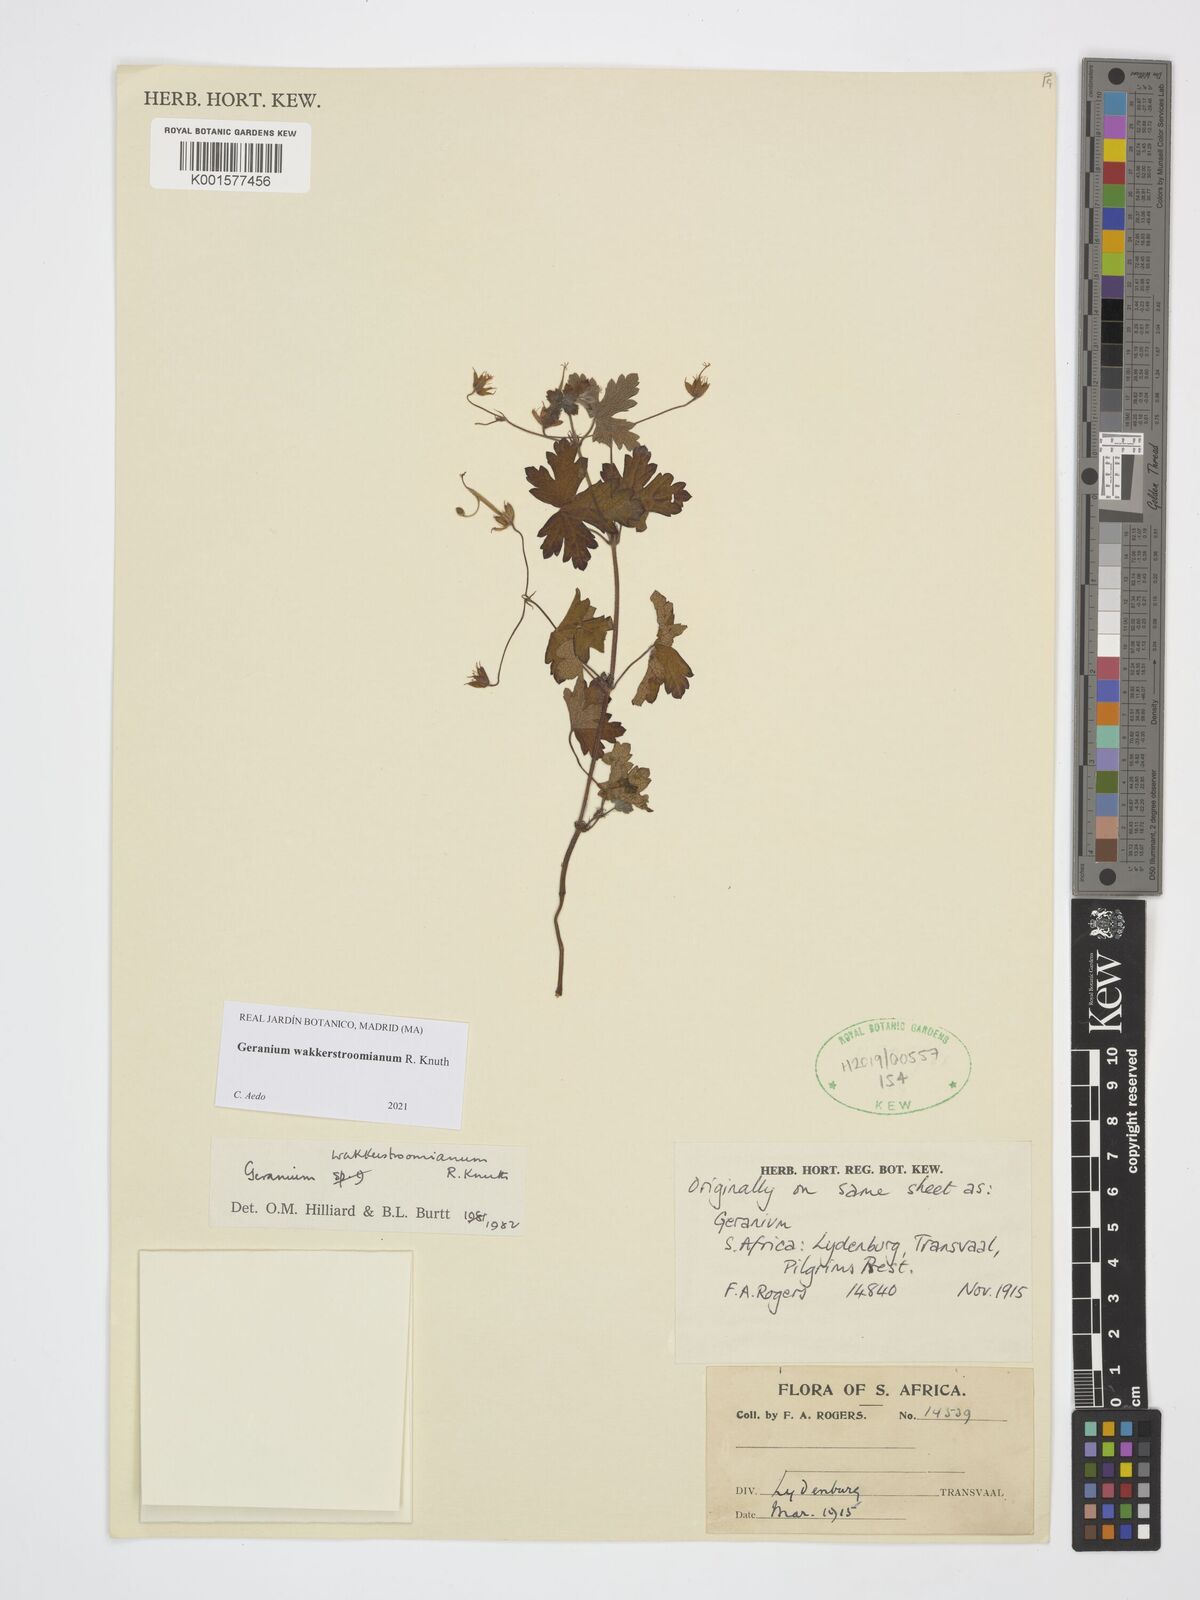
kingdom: Plantae
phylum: Tracheophyta
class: Magnoliopsida
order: Geraniales
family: Geraniaceae
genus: Geranium
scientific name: Geranium wakkerstroomianum
